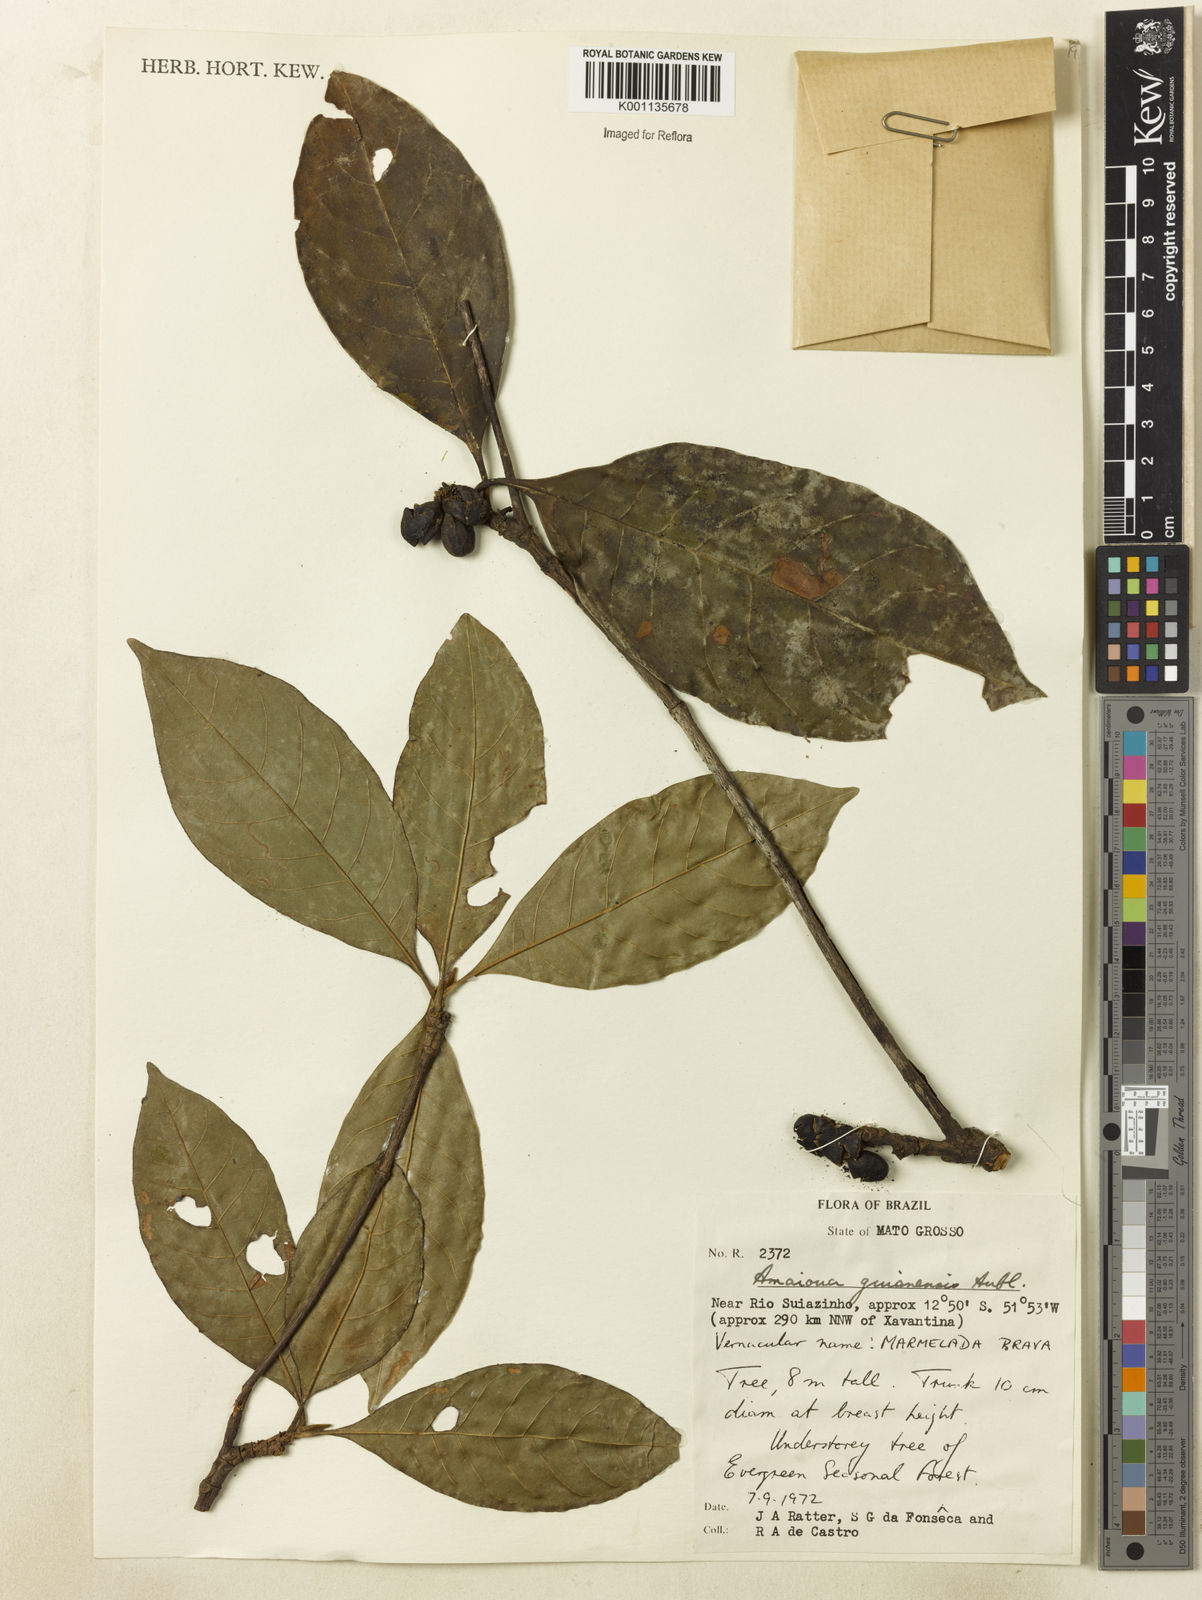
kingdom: Plantae
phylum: Tracheophyta
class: Magnoliopsida
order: Gentianales
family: Rubiaceae
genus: Amaioua
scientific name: Amaioua guianensis
